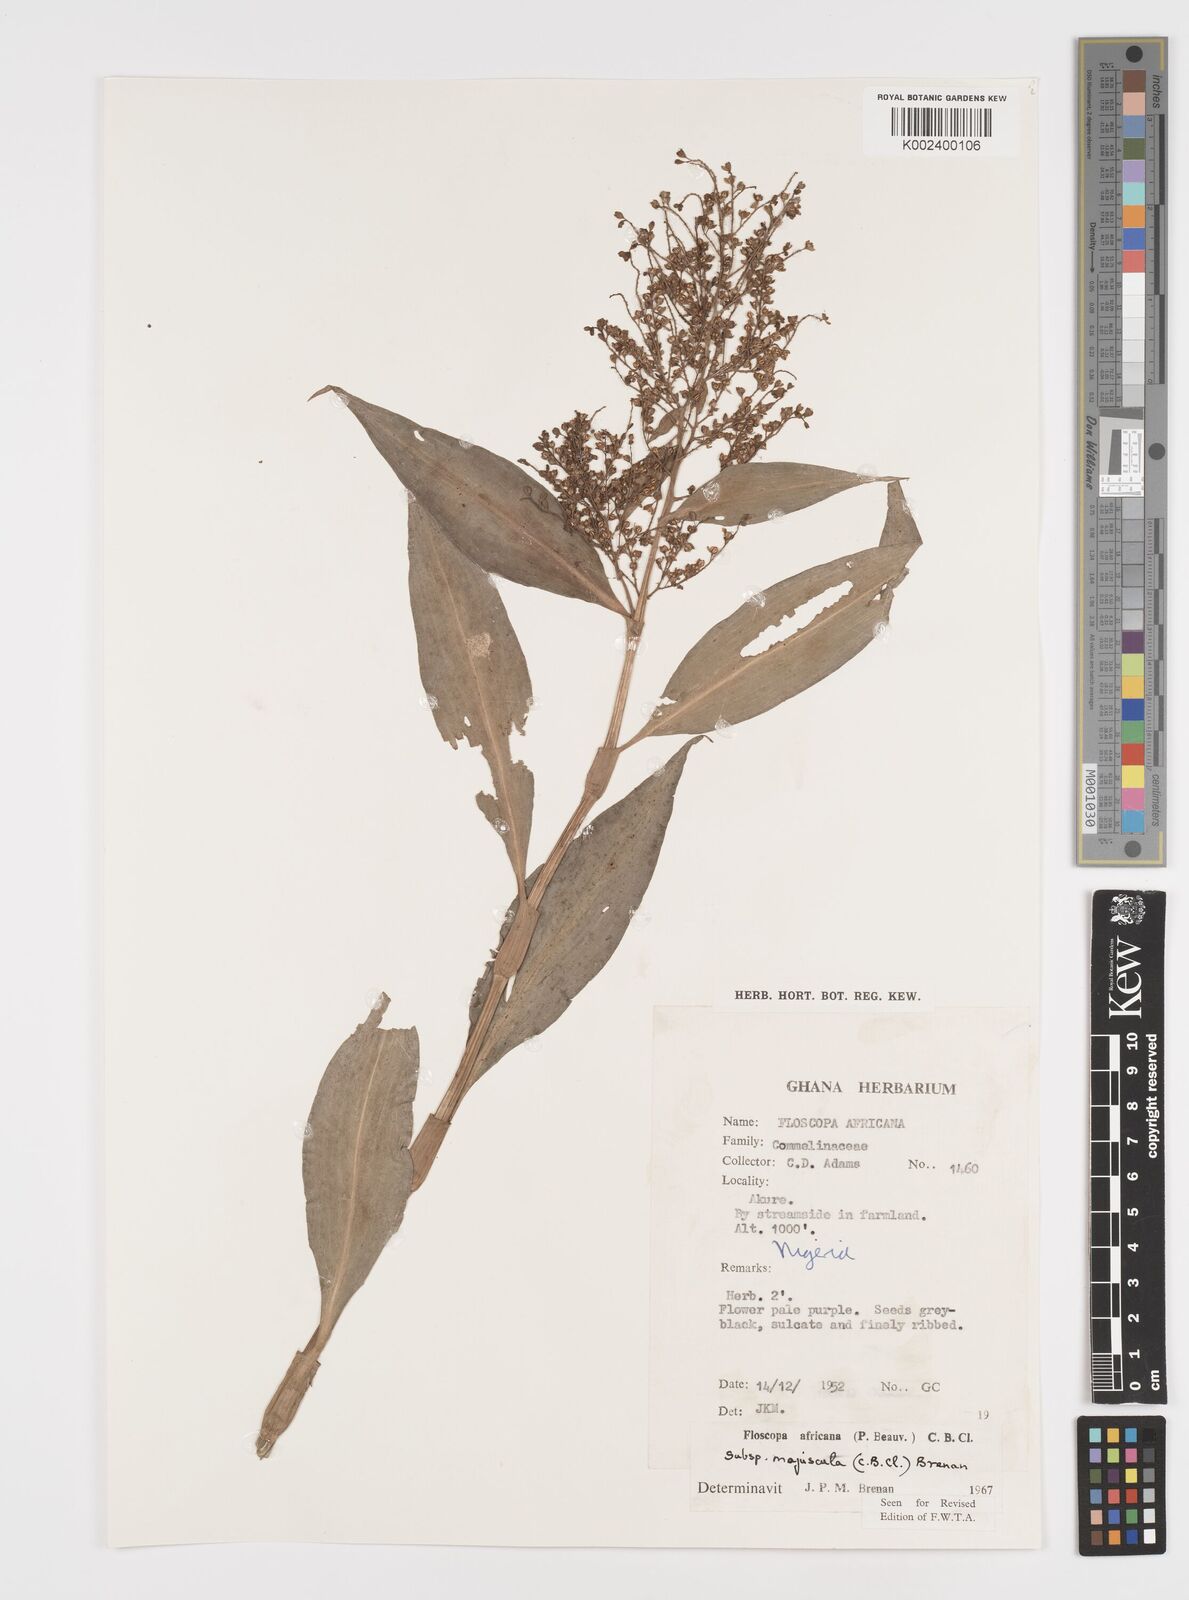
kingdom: Plantae
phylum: Tracheophyta
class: Liliopsida
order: Commelinales
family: Commelinaceae
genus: Floscopa
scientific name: Floscopa africana
